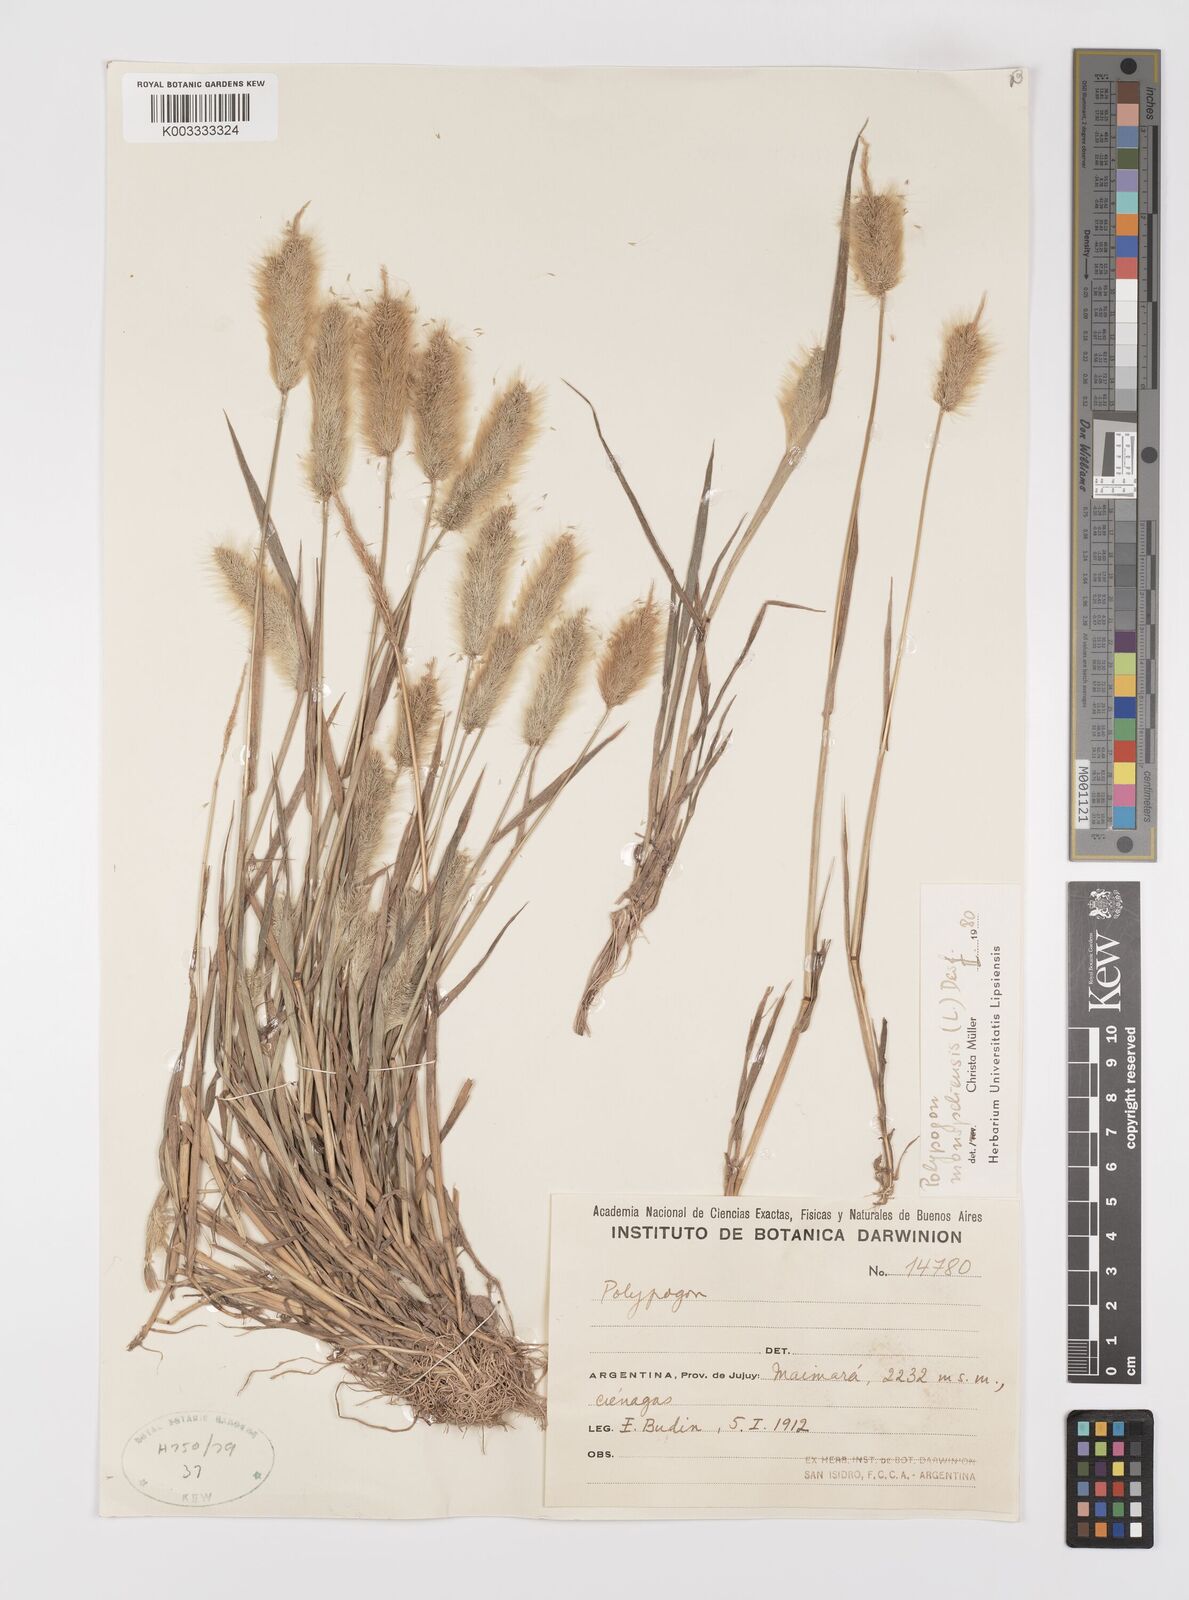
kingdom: Plantae
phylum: Tracheophyta
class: Liliopsida
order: Poales
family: Poaceae
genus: Polypogon
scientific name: Polypogon monspeliensis
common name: Annual rabbitsfoot grass
